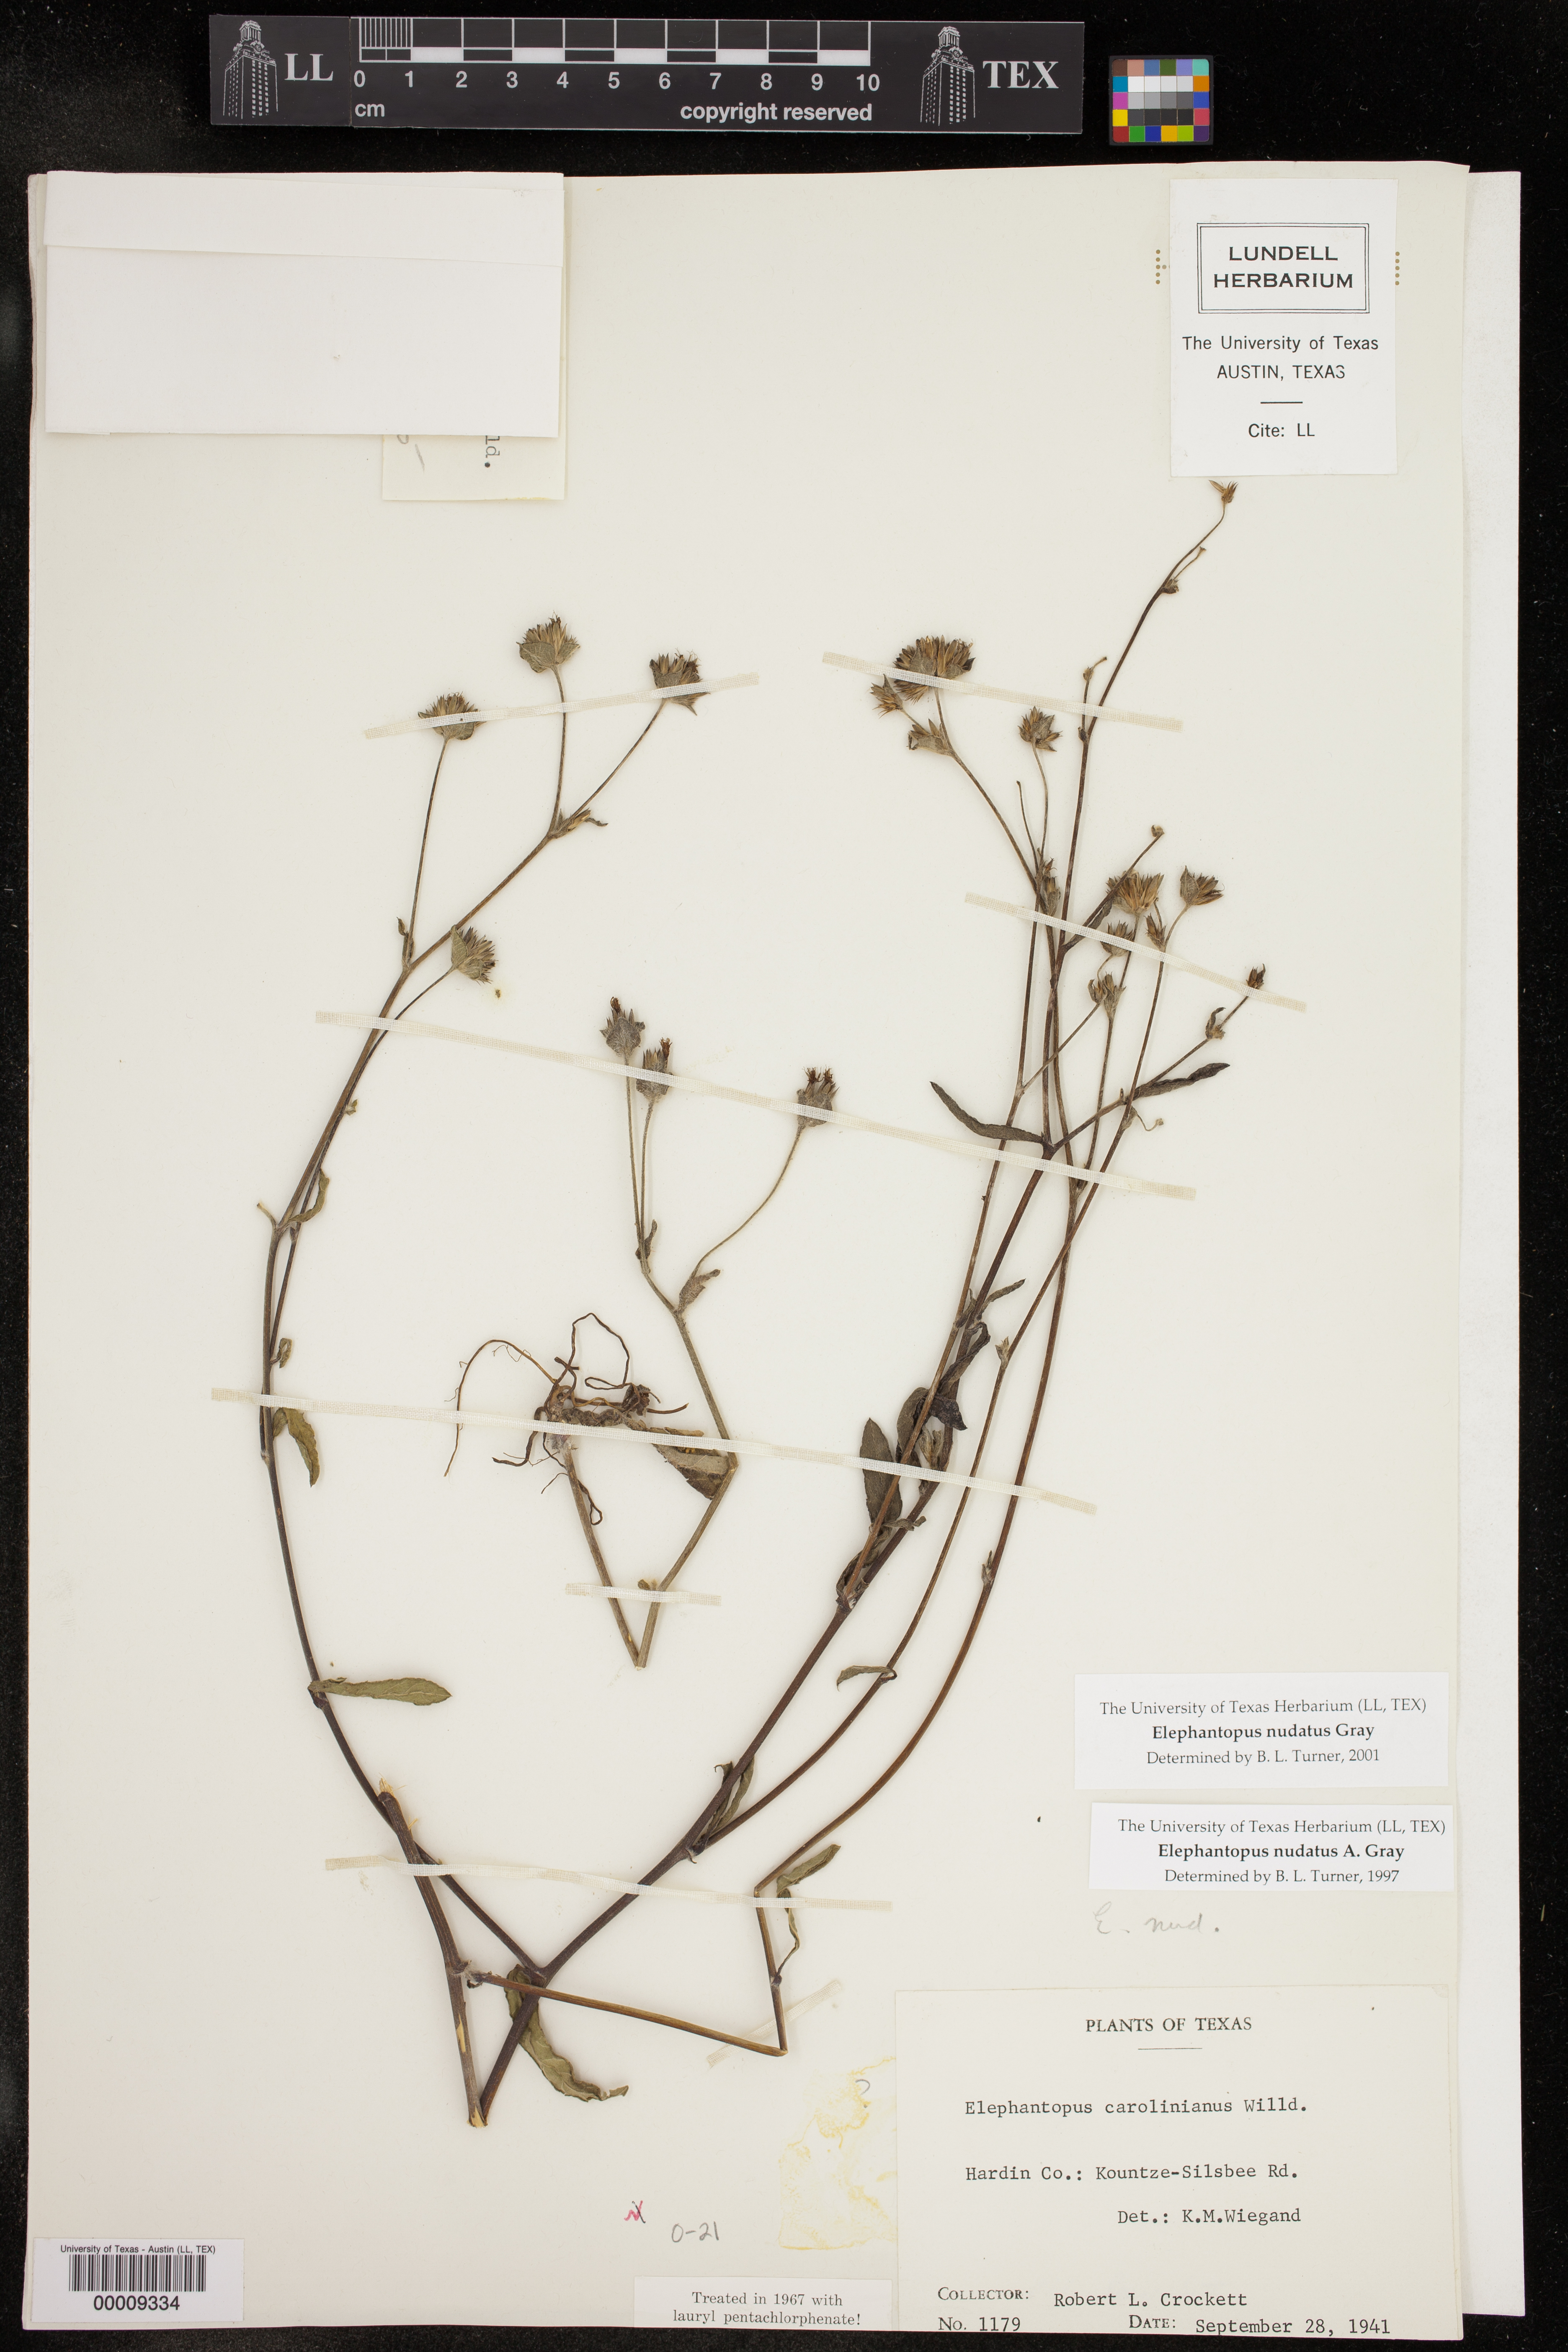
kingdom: Plantae
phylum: Tracheophyta
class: Magnoliopsida
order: Asterales
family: Asteraceae
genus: Elephantopus
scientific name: Elephantopus carolinianus
